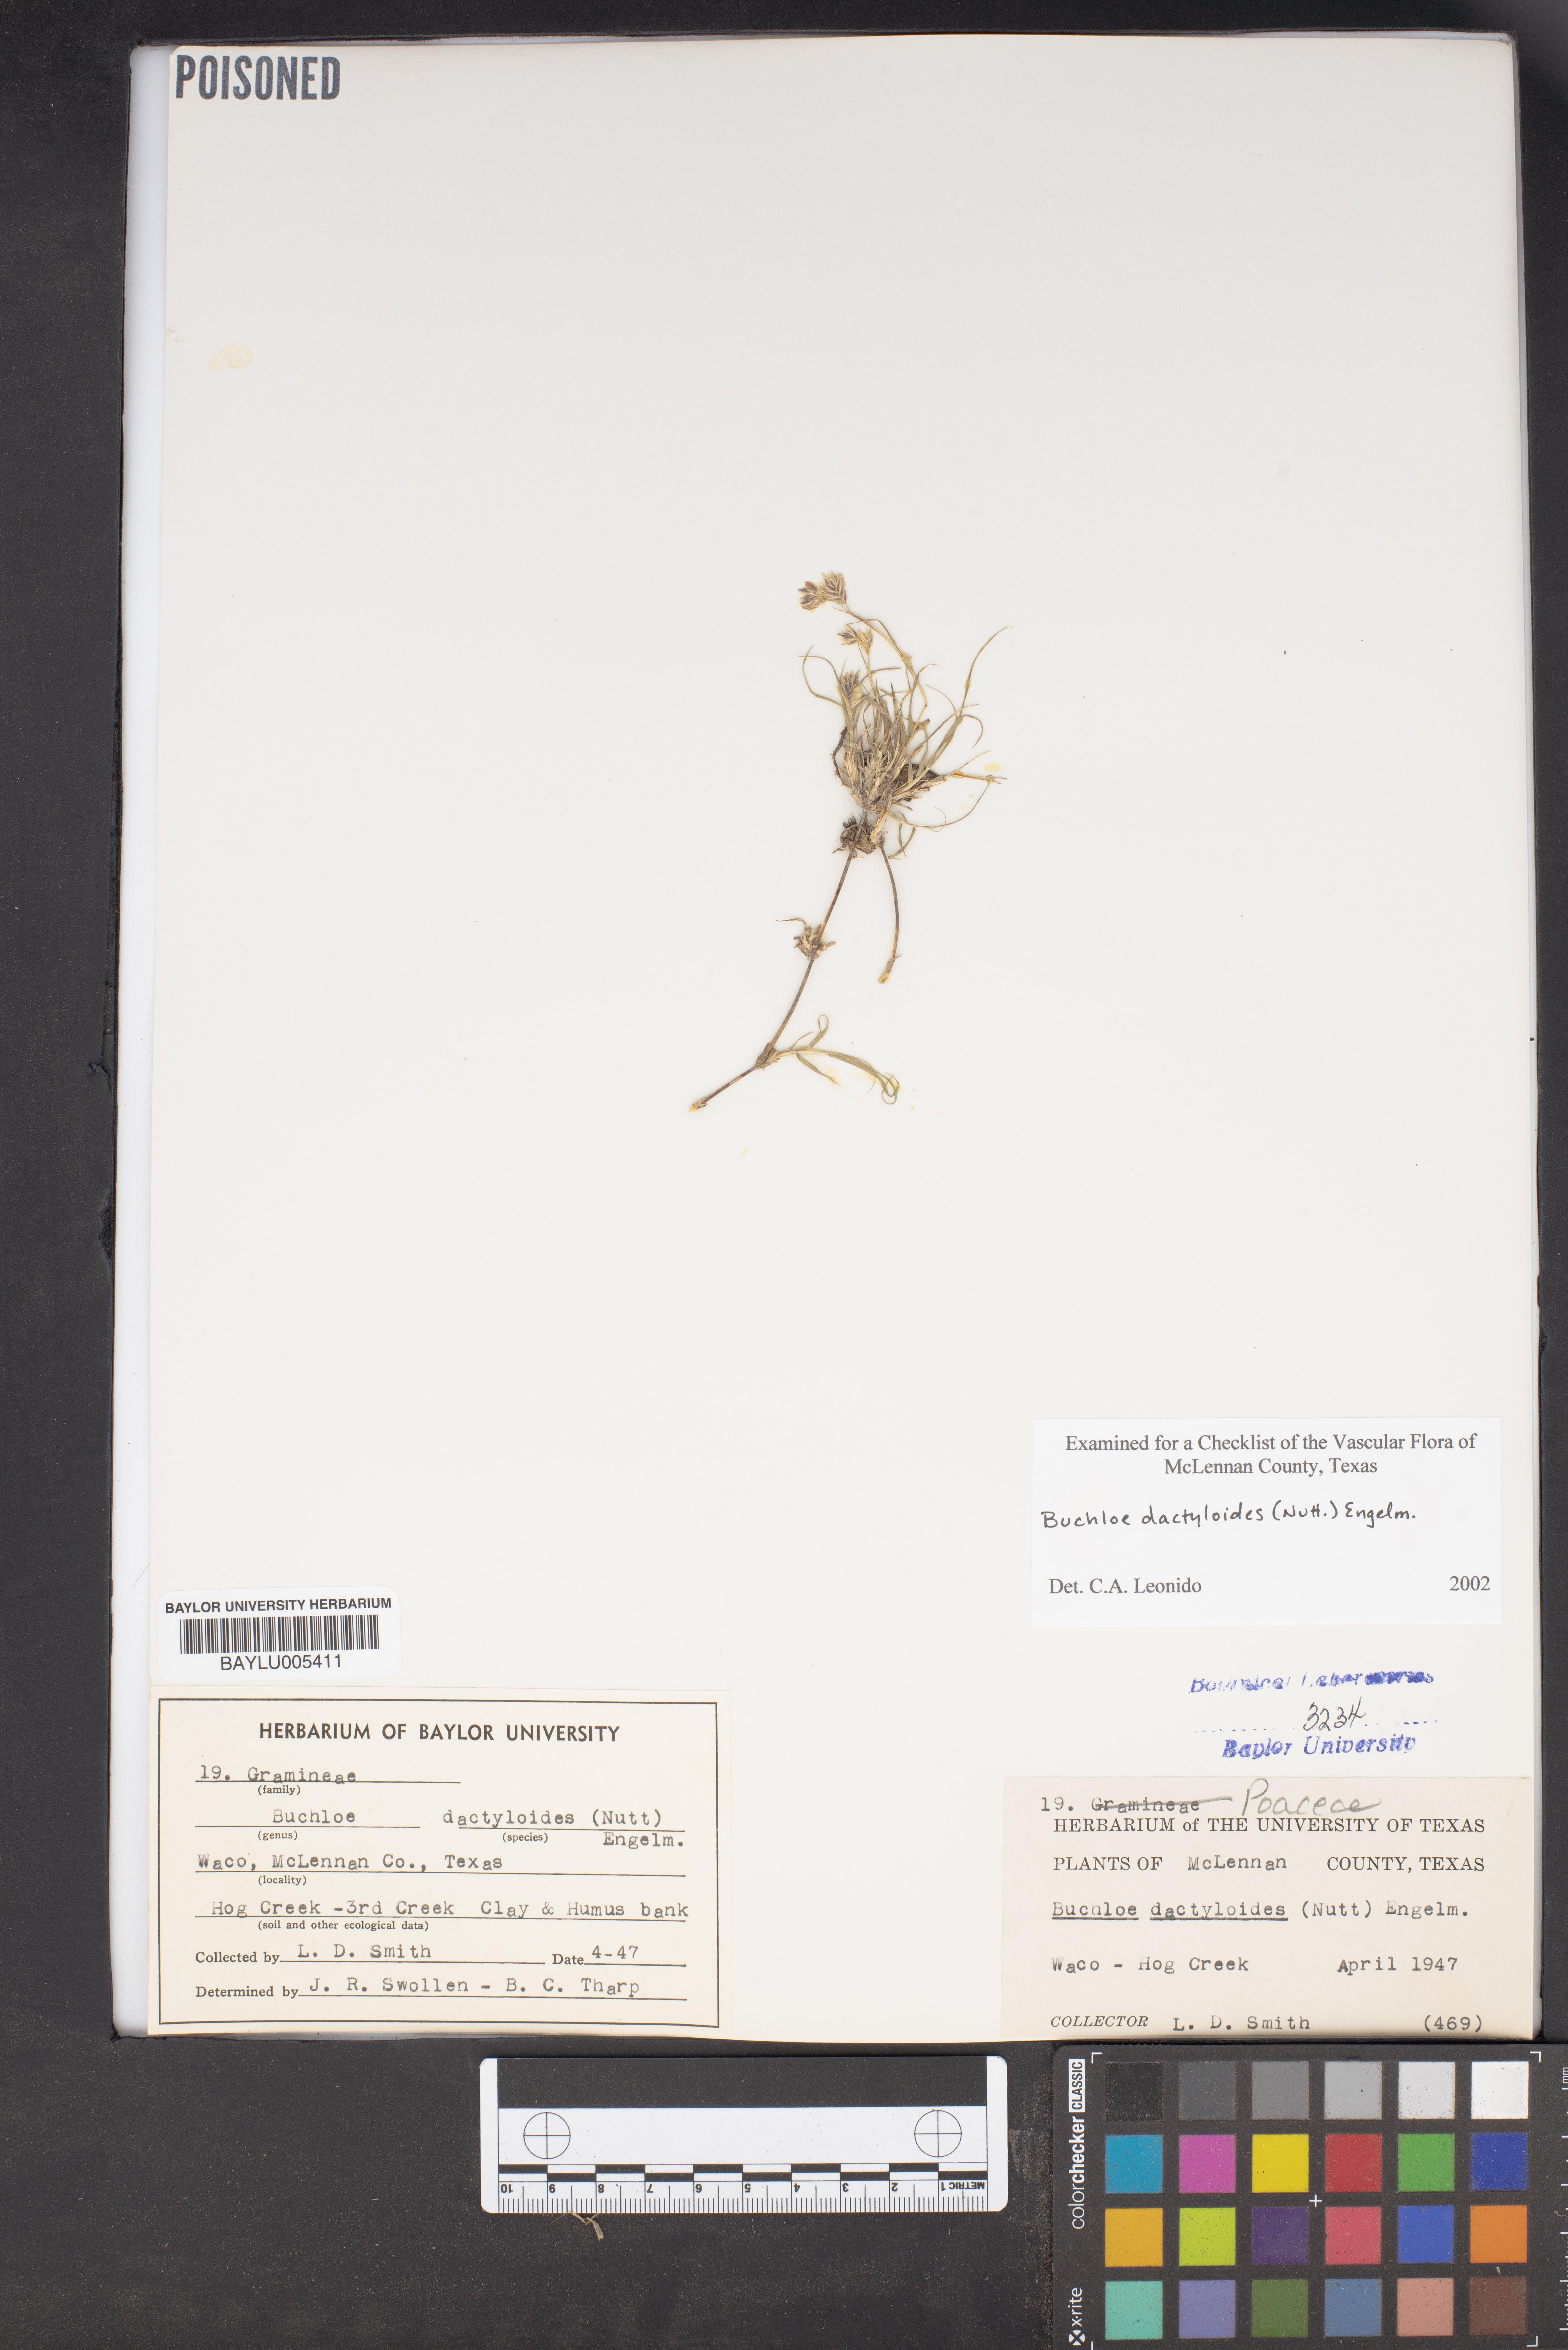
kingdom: Plantae
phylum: Tracheophyta
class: Liliopsida
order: Poales
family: Poaceae
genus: Bouteloua
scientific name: Bouteloua dactyloides
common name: Buffalo grass
